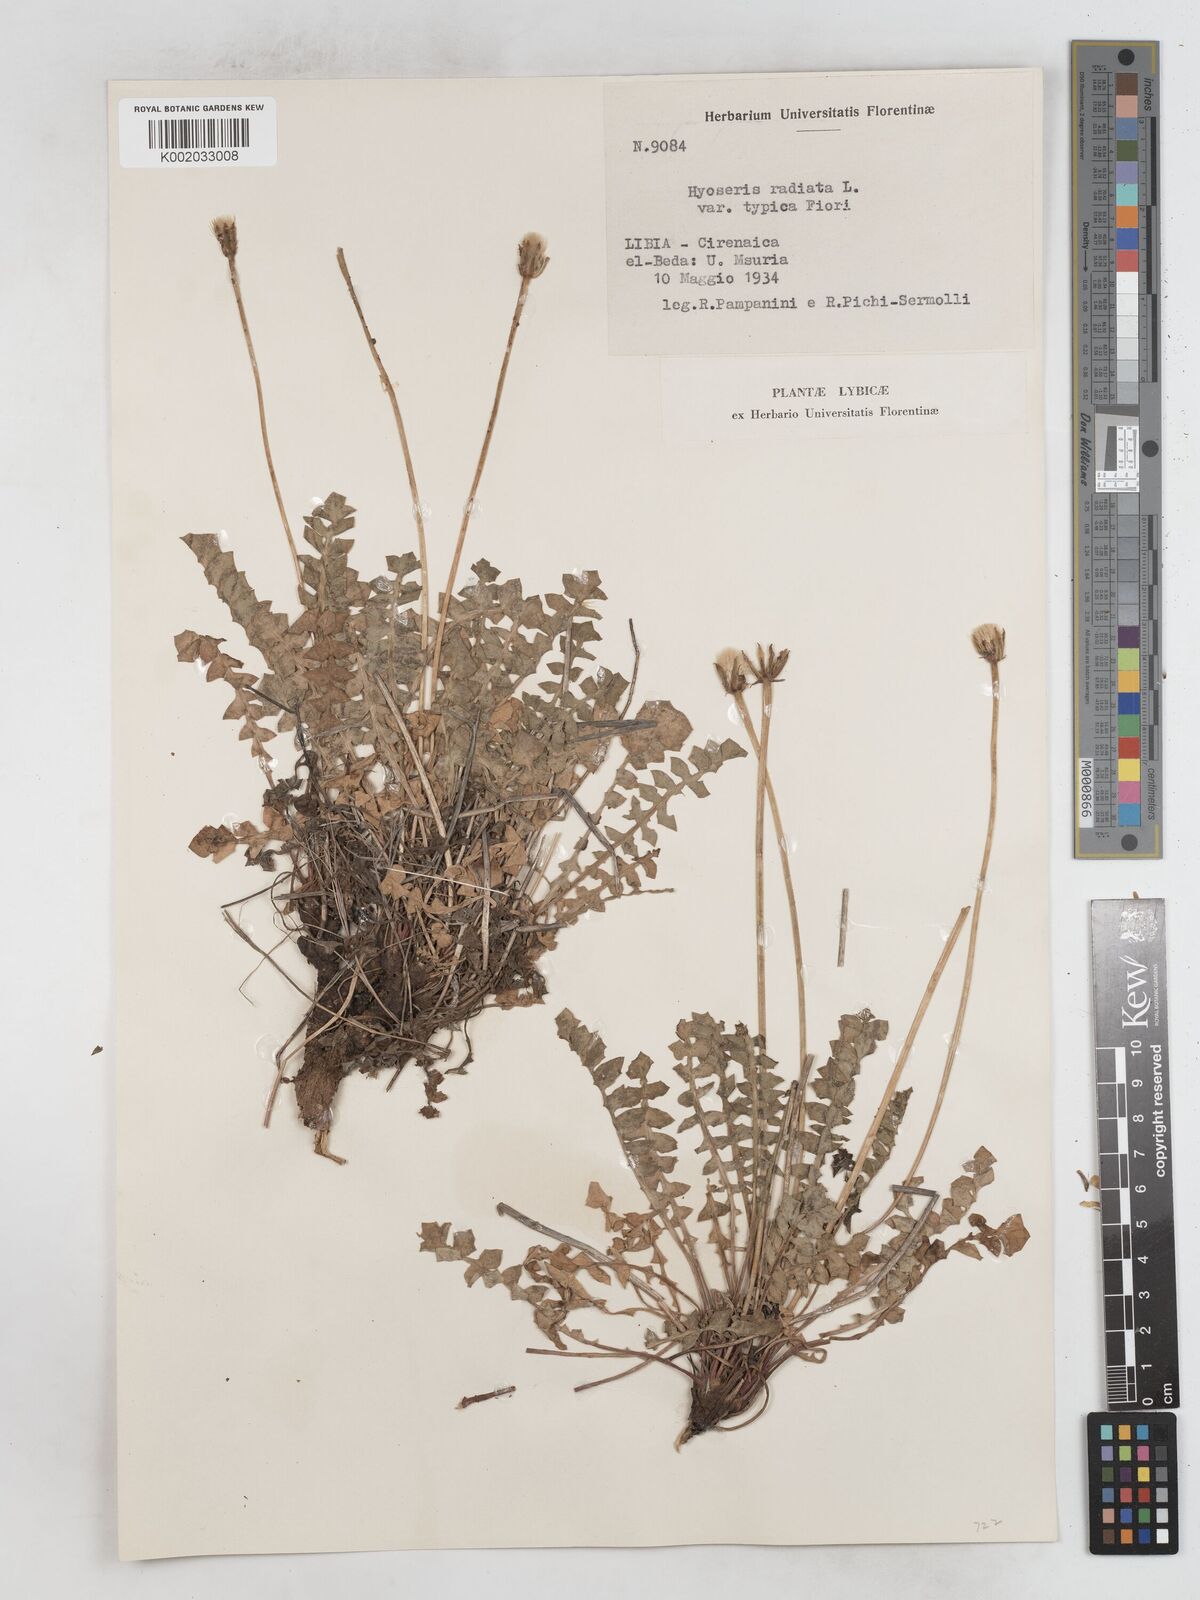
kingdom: Plantae
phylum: Tracheophyta
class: Magnoliopsida
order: Asterales
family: Asteraceae
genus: Hyoseris
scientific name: Hyoseris radiata
